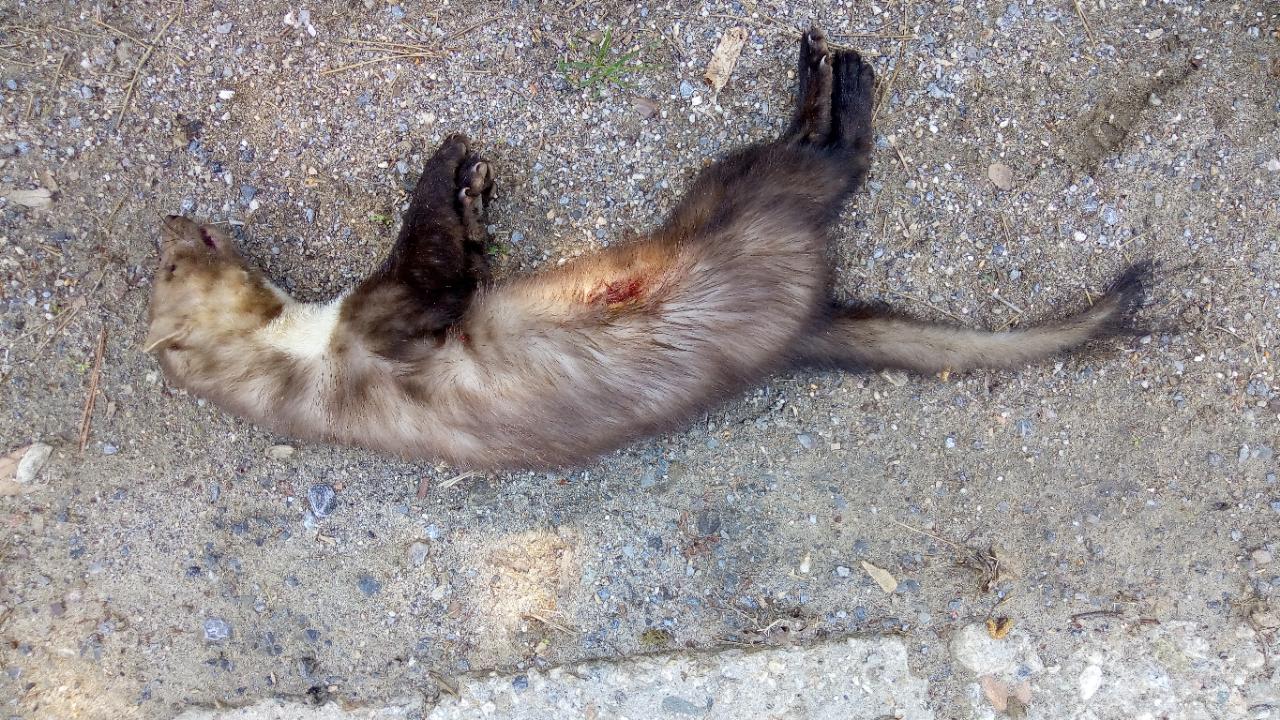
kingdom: Animalia
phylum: Chordata
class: Mammalia
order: Carnivora
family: Mustelidae
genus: Martes
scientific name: Martes foina
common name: Beech marten
